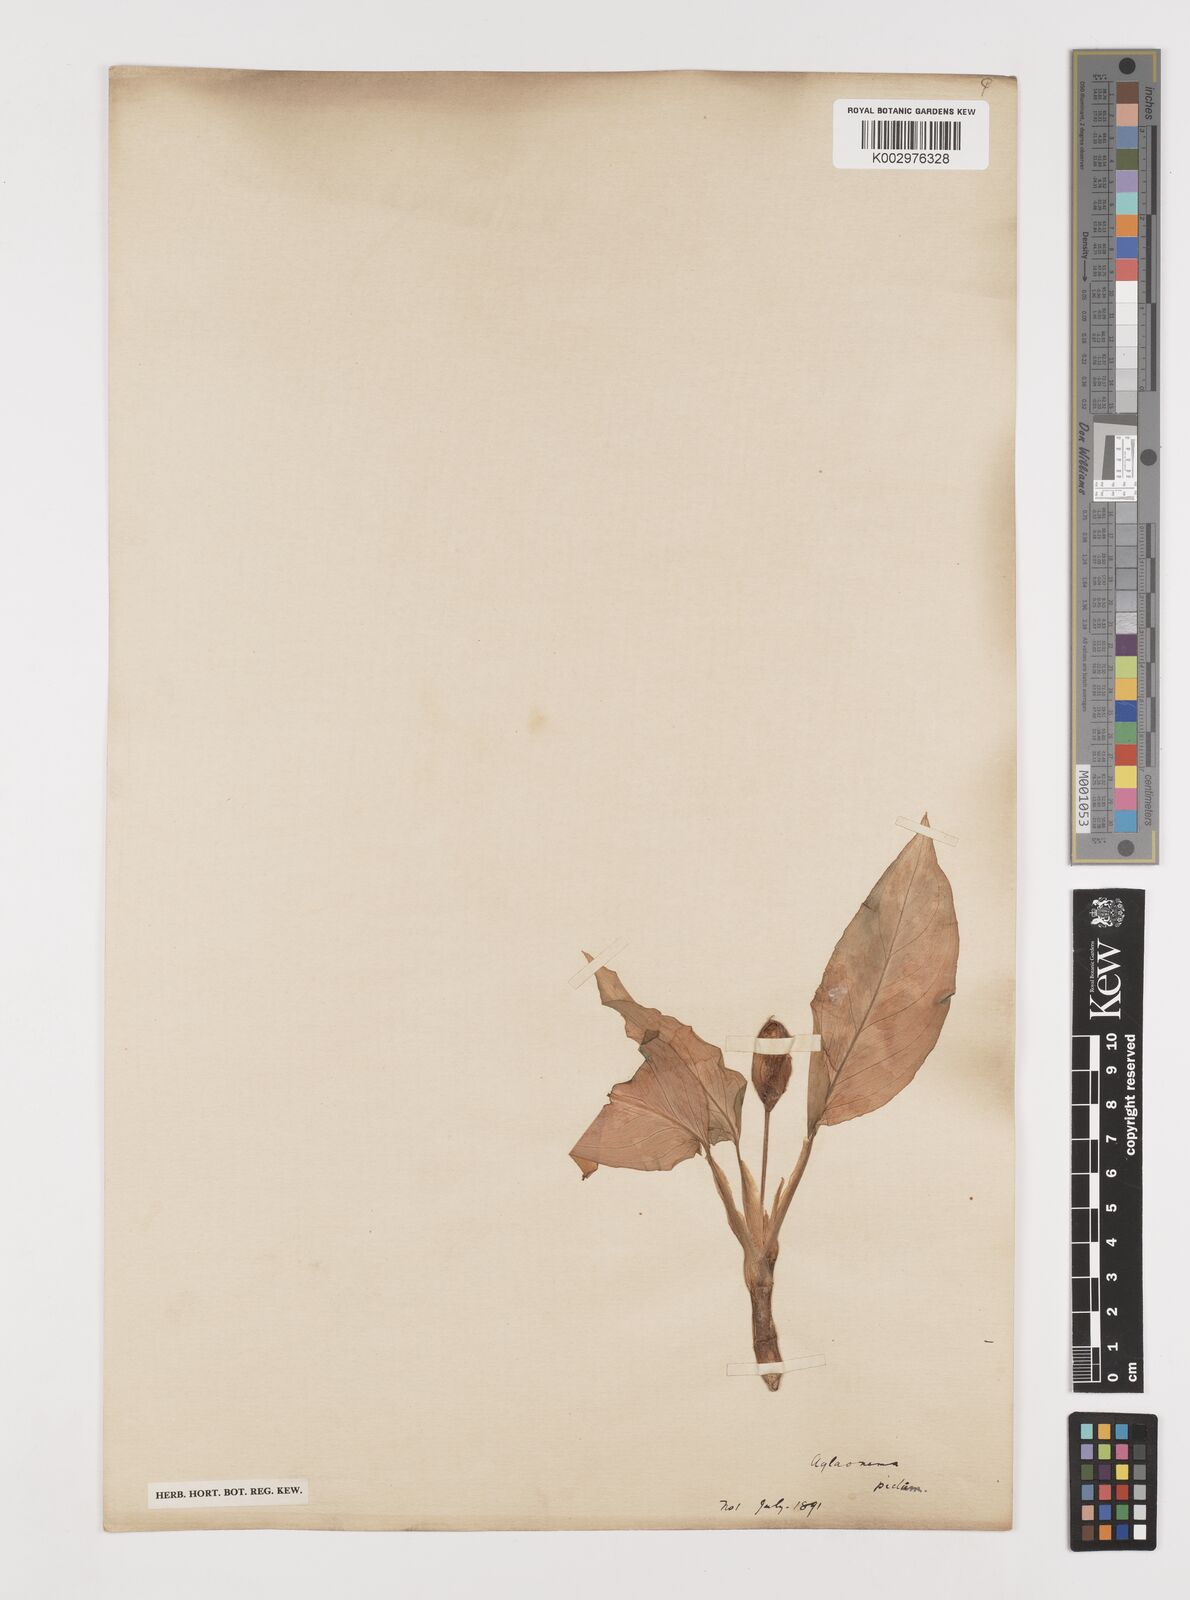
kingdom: Plantae
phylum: Tracheophyta
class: Liliopsida
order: Alismatales
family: Araceae
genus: Aglaonema
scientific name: Aglaonema pictum
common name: Aglaonema aroid
